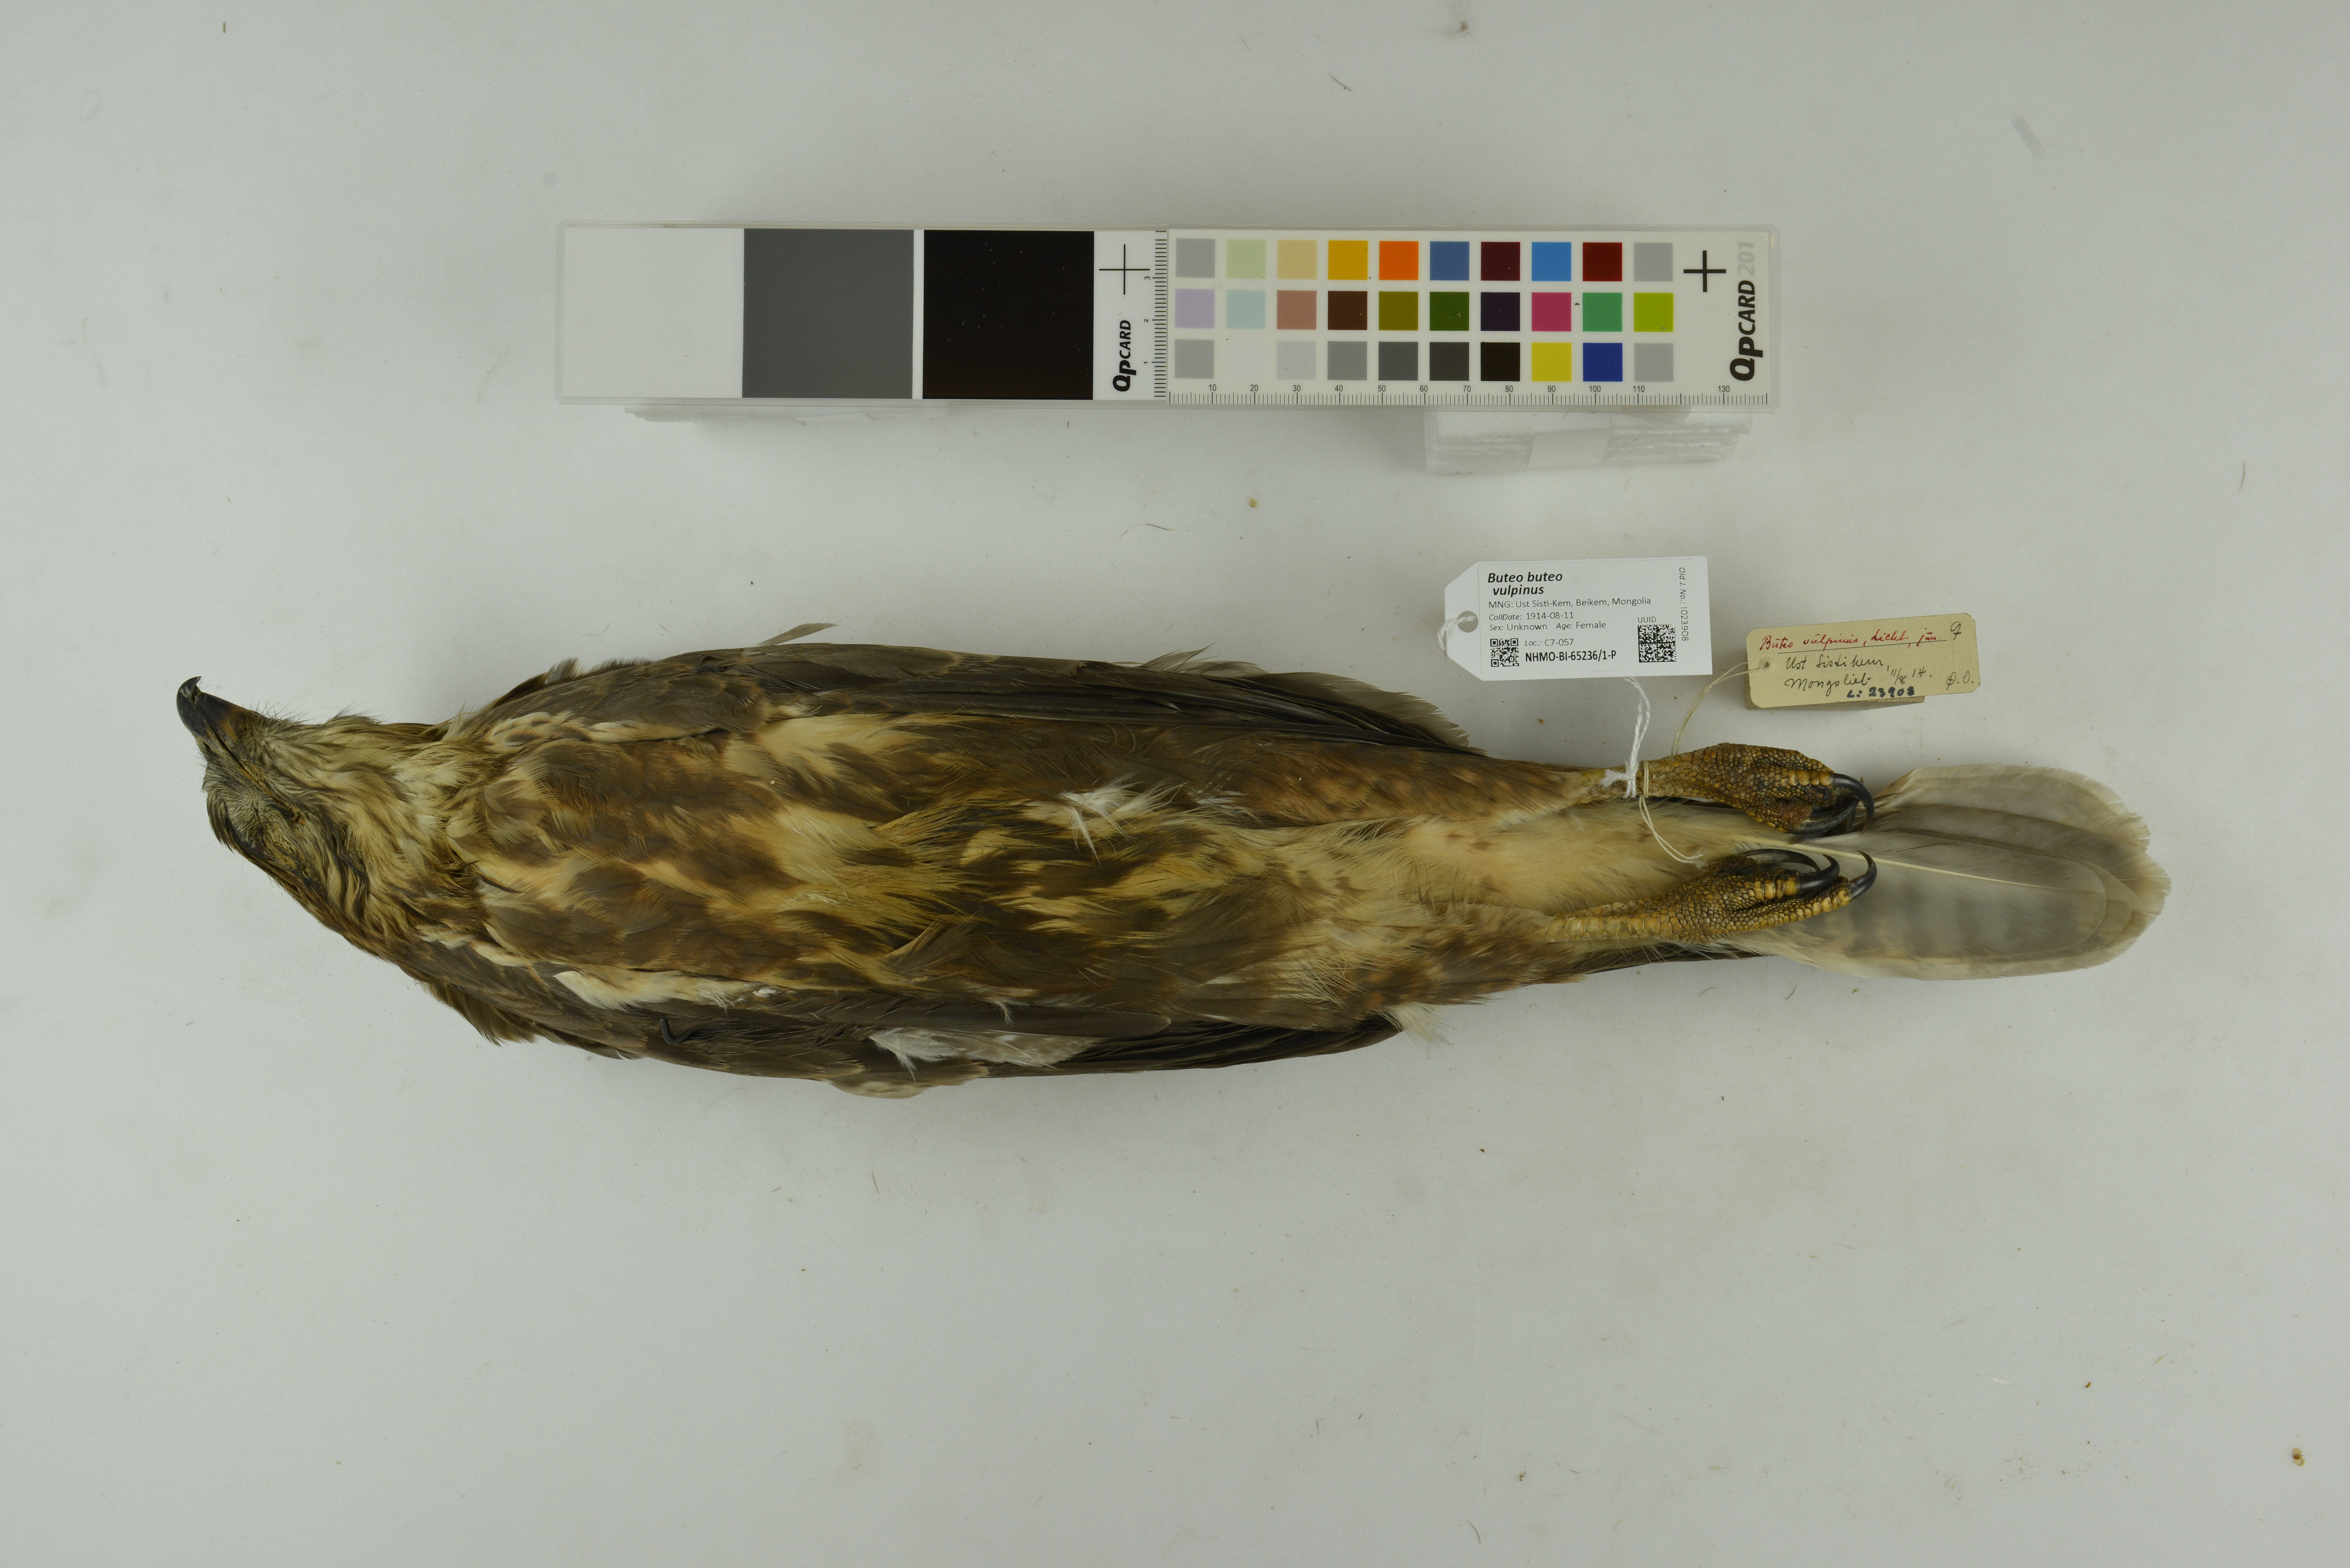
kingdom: Animalia
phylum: Chordata
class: Aves
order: Accipitriformes
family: Accipitridae
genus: Buteo
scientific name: Buteo buteo
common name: Common buzzard
